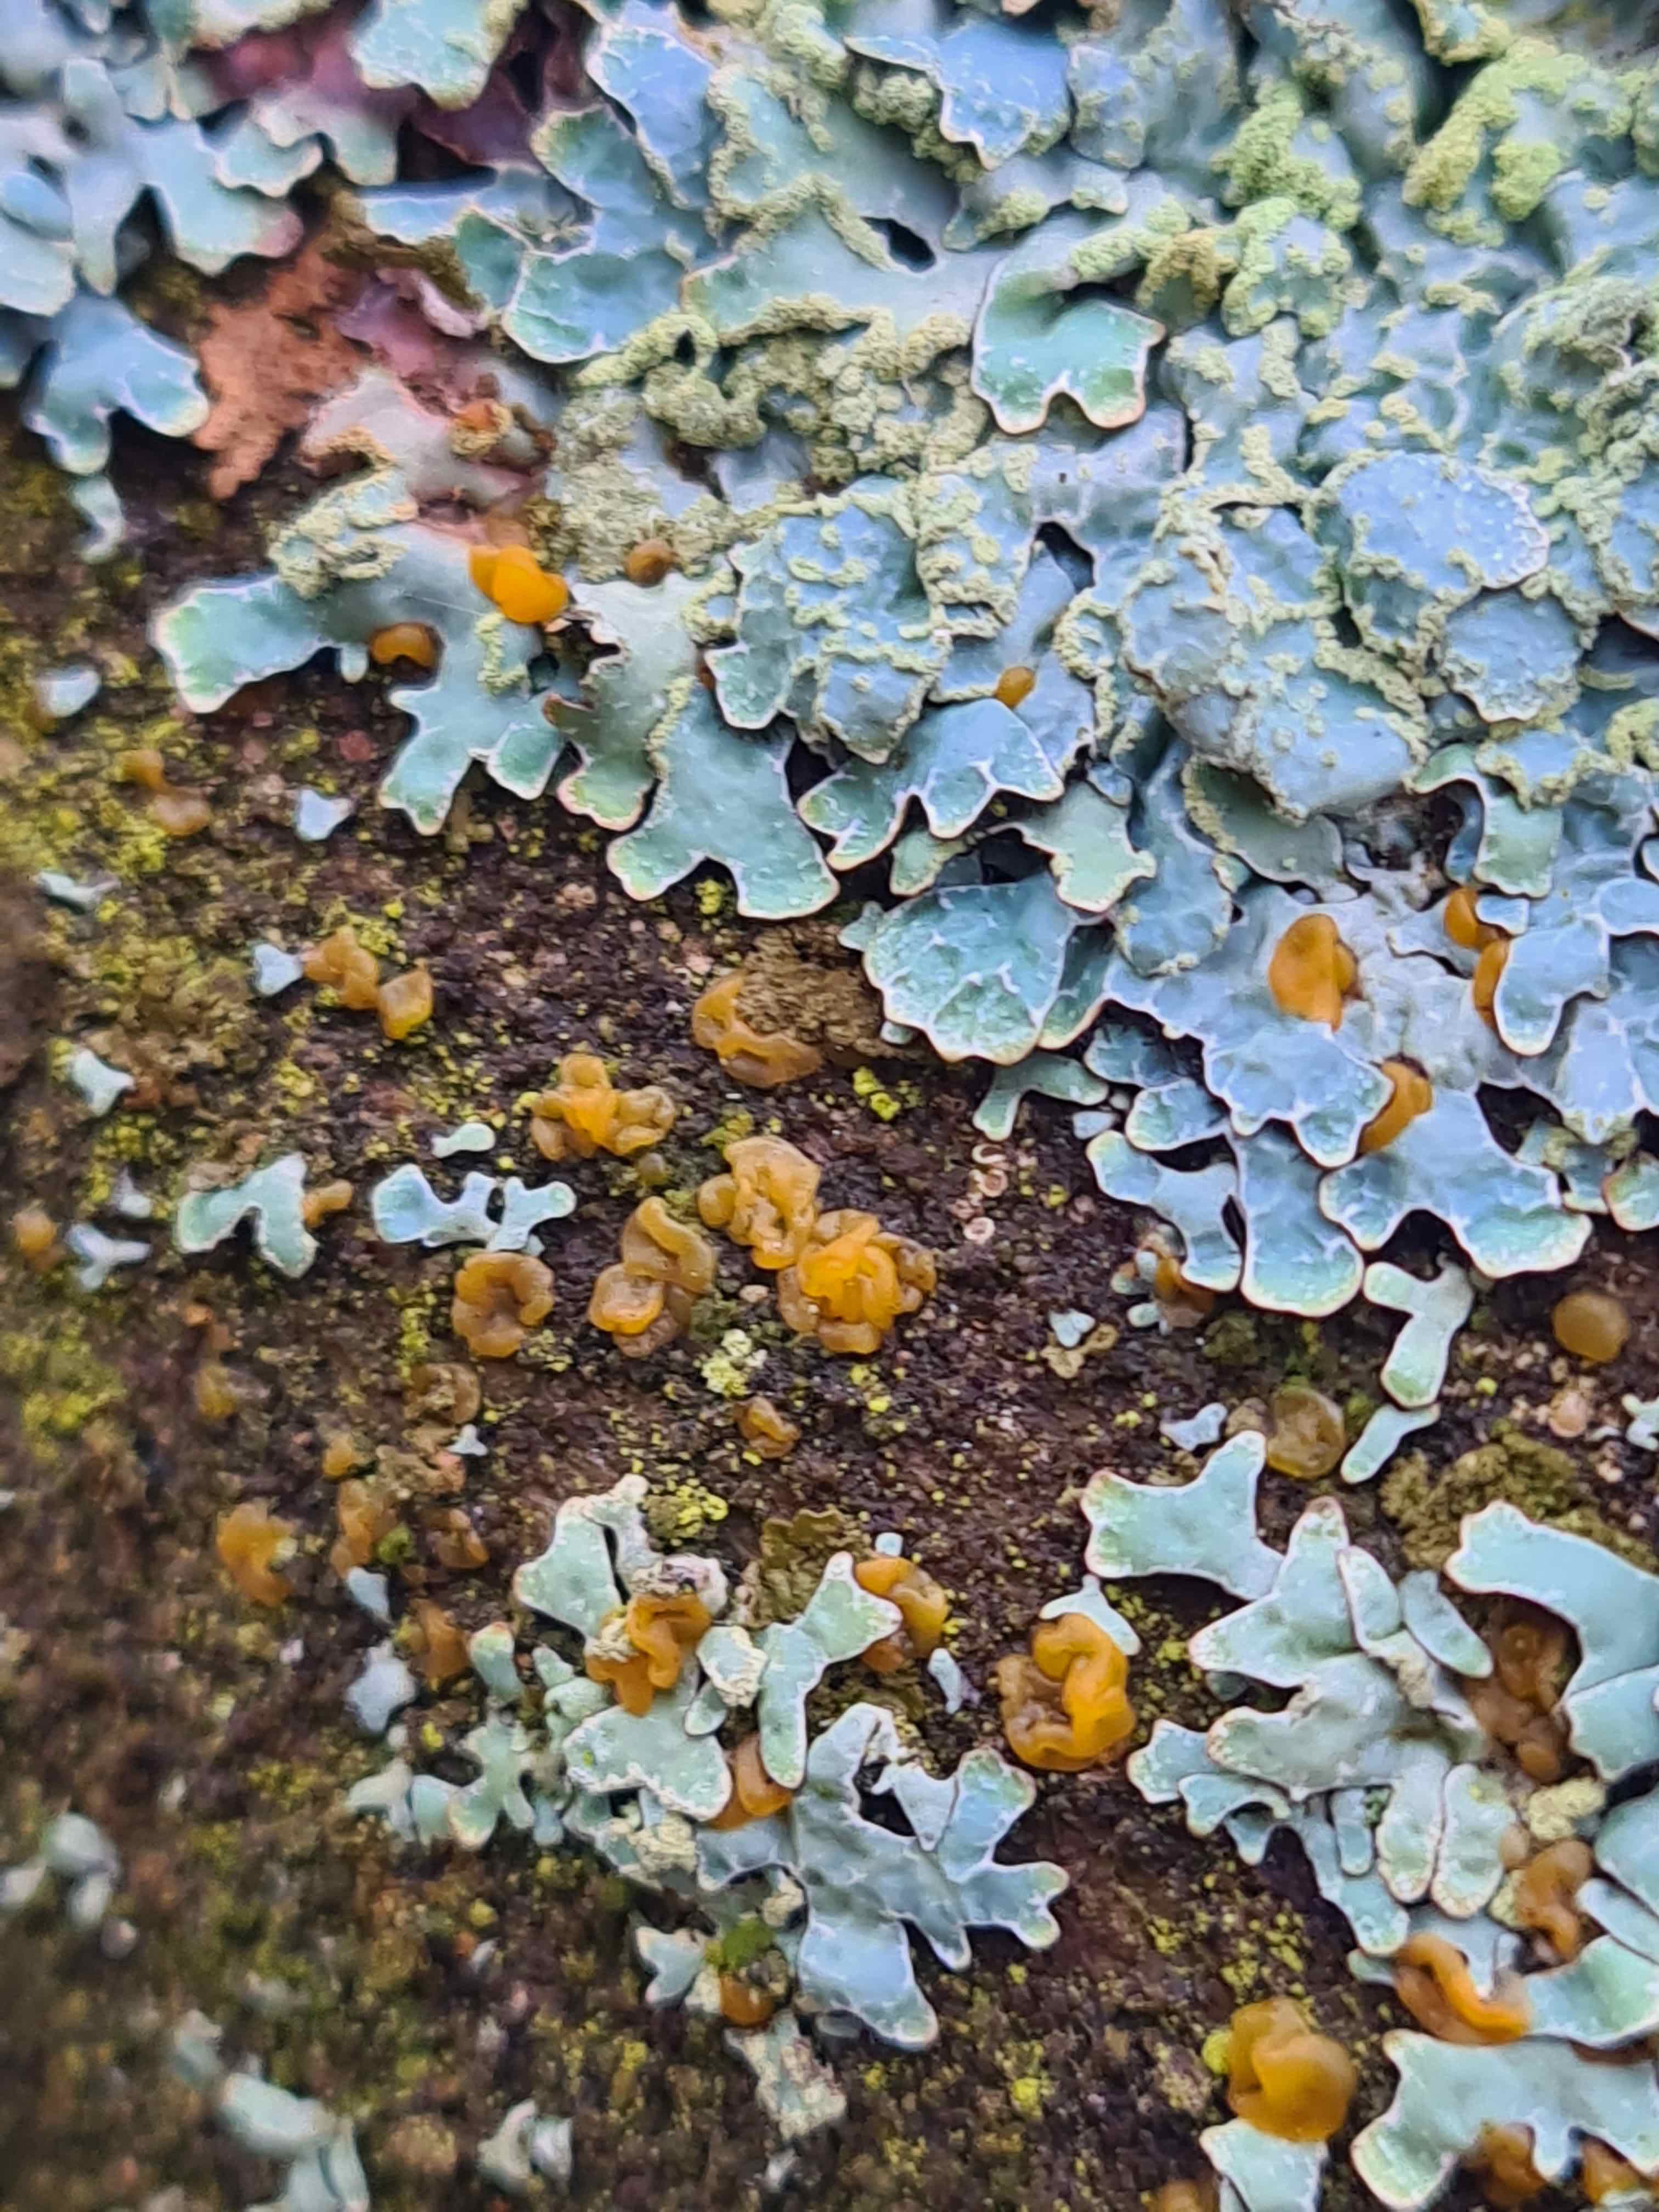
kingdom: Fungi
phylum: Basidiomycota
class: Dacrymycetes
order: Dacrymycetales
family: Dacrymycetaceae
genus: Dacrymyces
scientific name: Dacrymyces lacrymalis
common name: rynket tåresvamp
